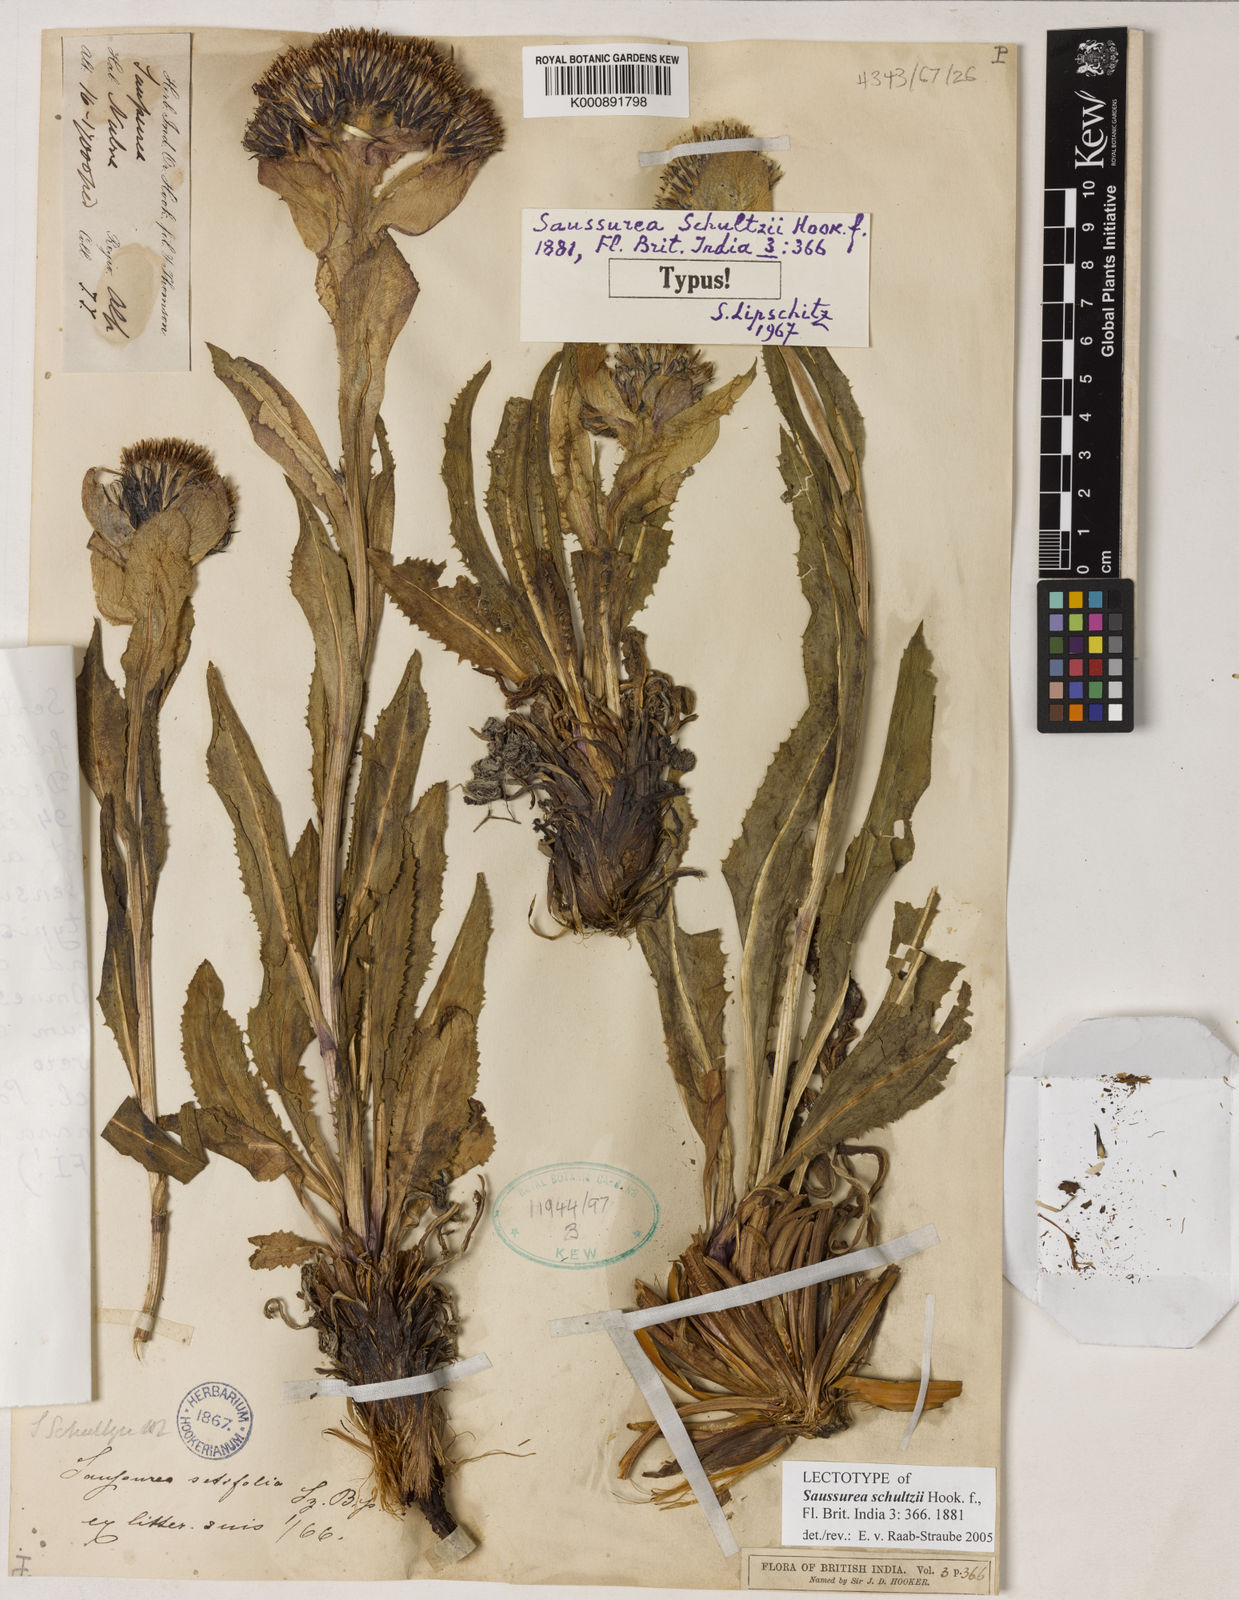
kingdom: Plantae
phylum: Tracheophyta
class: Magnoliopsida
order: Asterales
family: Asteraceae
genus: Saussurea
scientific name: Saussurea bracteata
